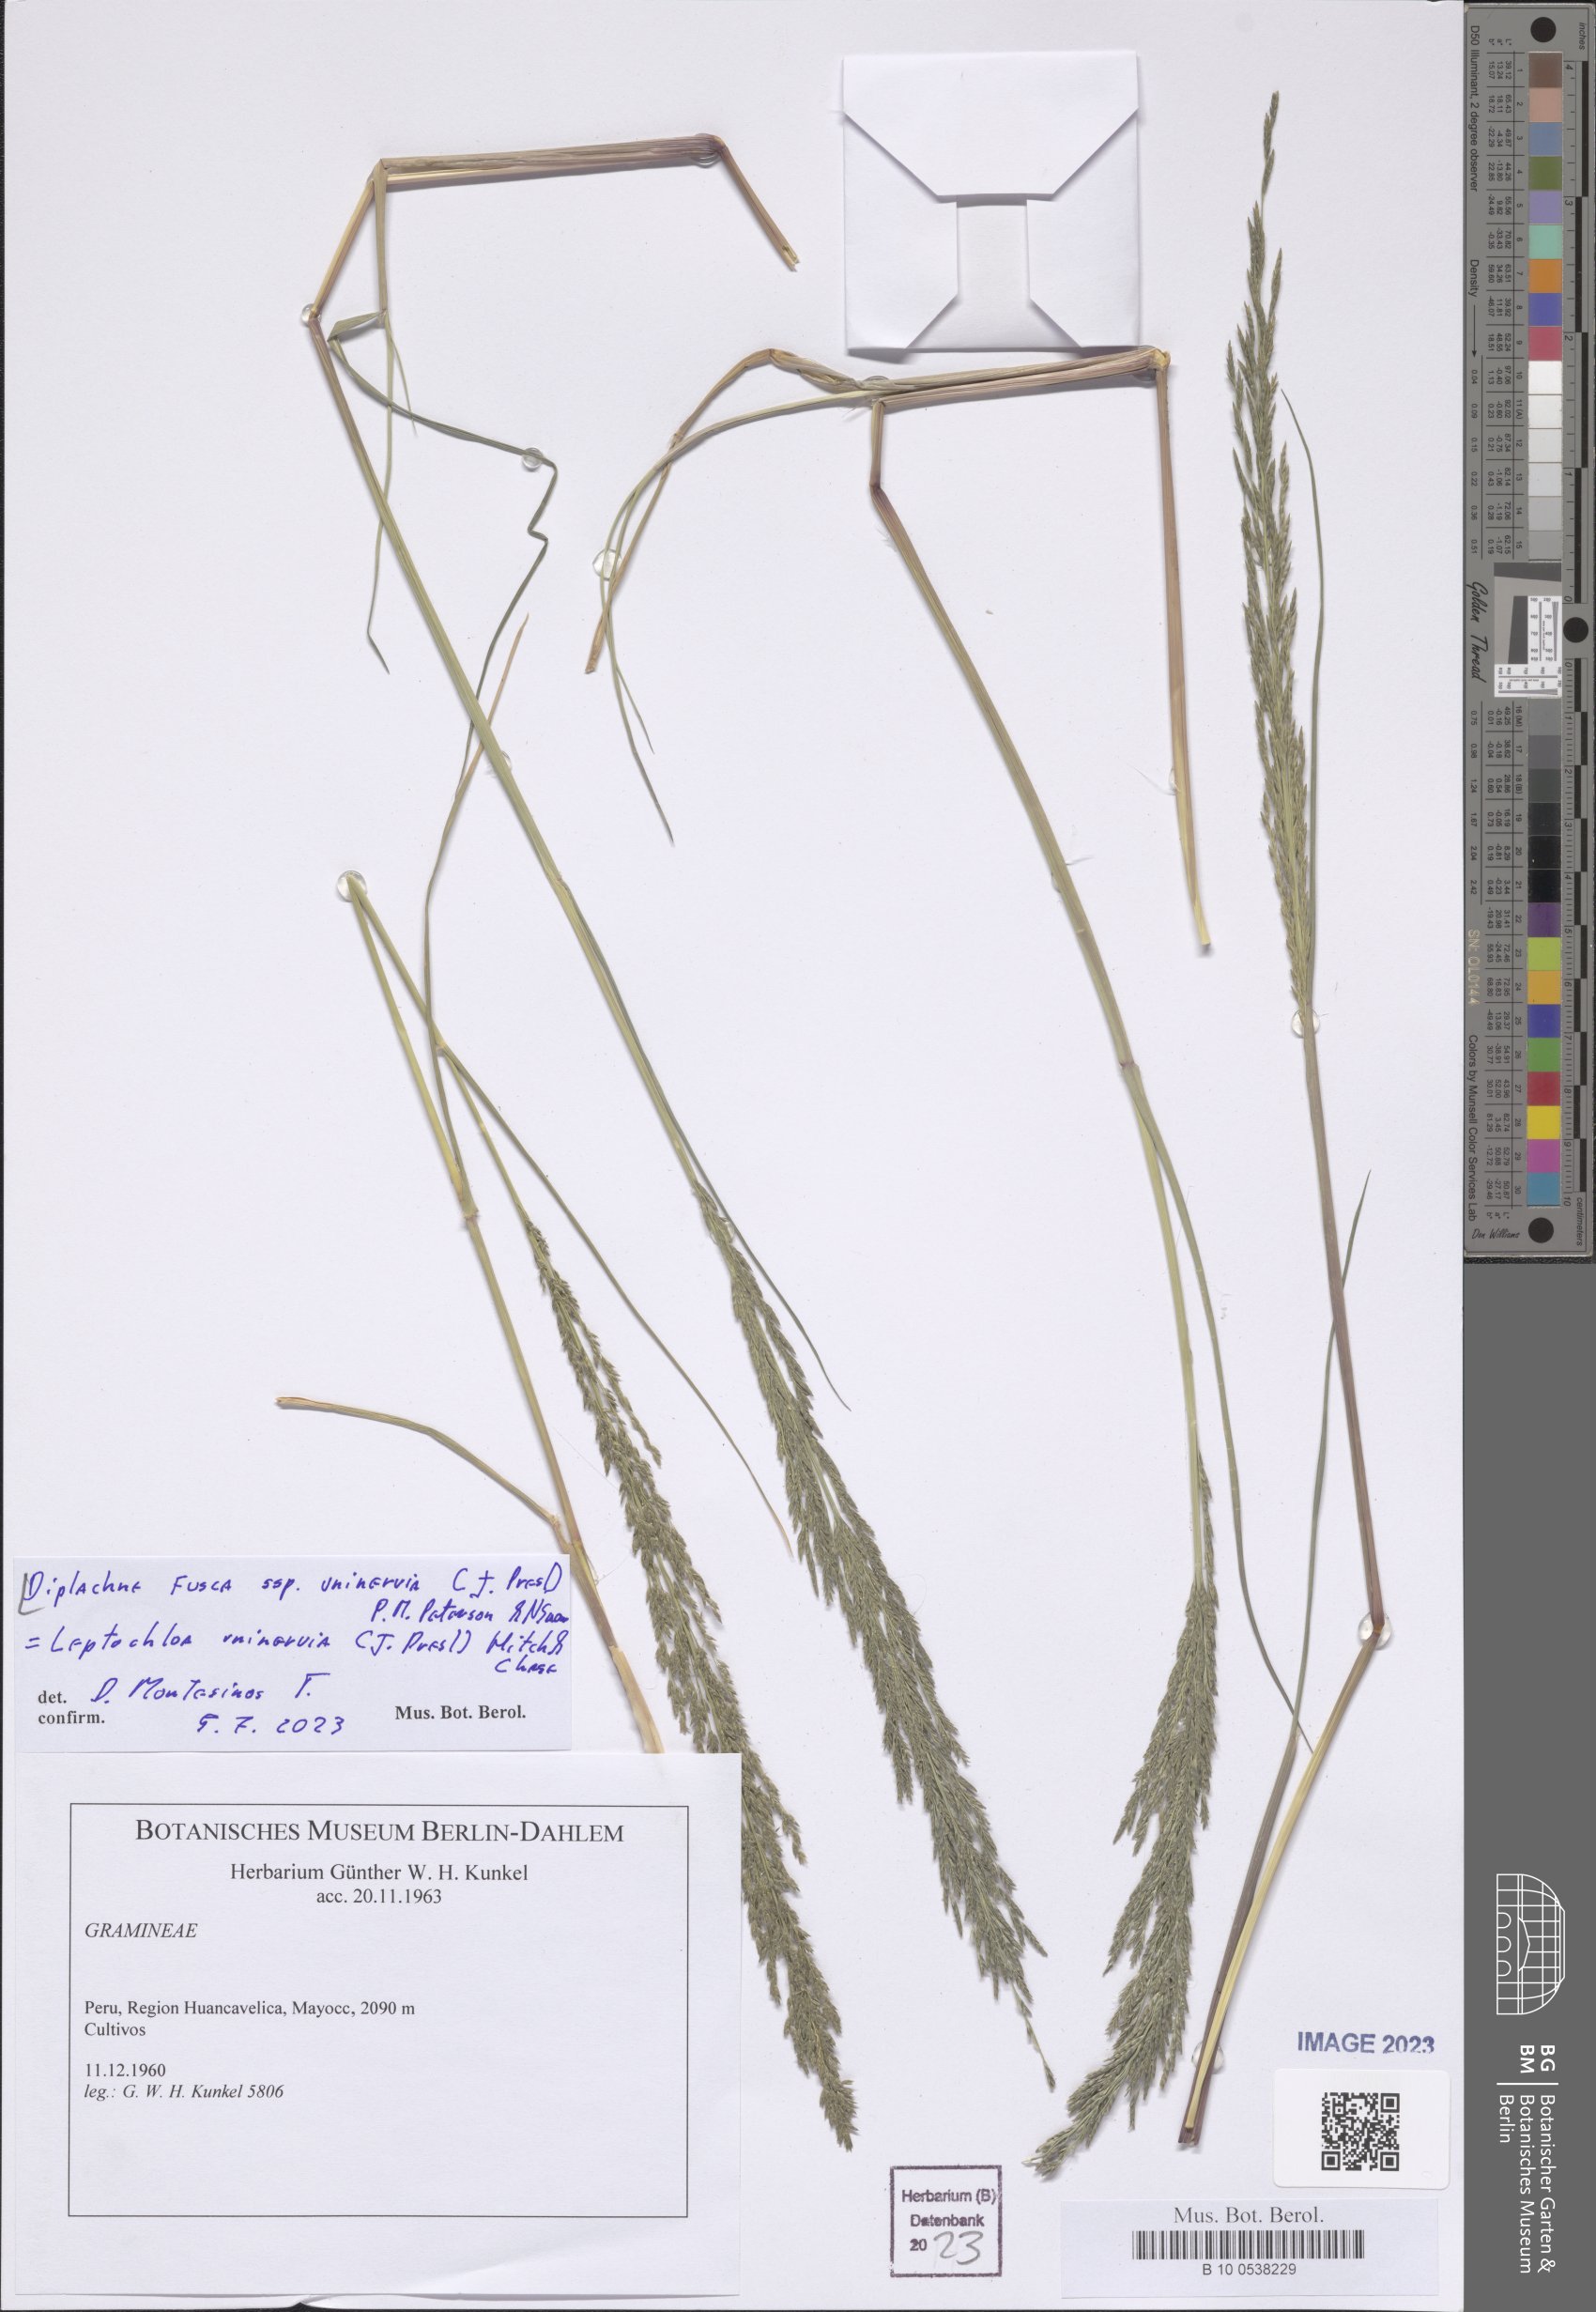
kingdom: Plantae
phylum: Tracheophyta
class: Liliopsida
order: Poales
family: Poaceae
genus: Diplachne
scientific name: Diplachne fusca
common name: Brown beetle grass
